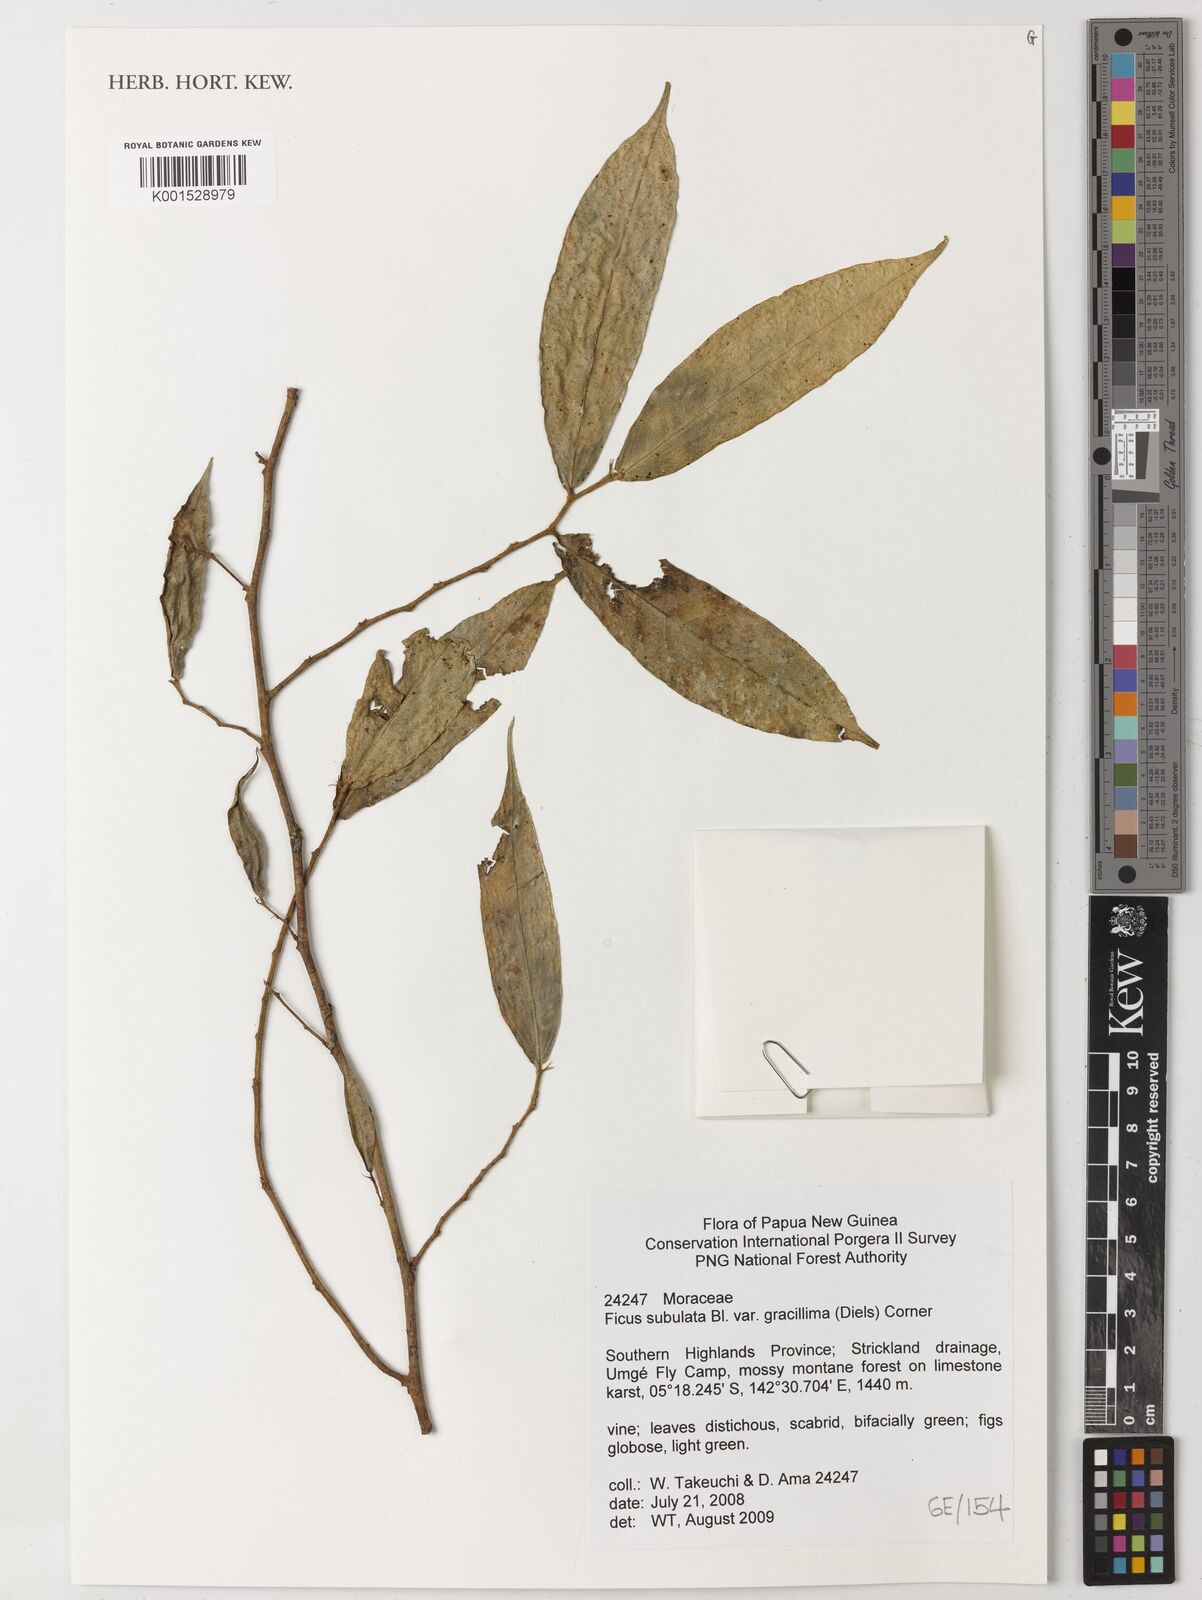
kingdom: Plantae
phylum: Tracheophyta
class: Magnoliopsida
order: Rosales
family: Moraceae
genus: Ficus
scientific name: Ficus subulata
